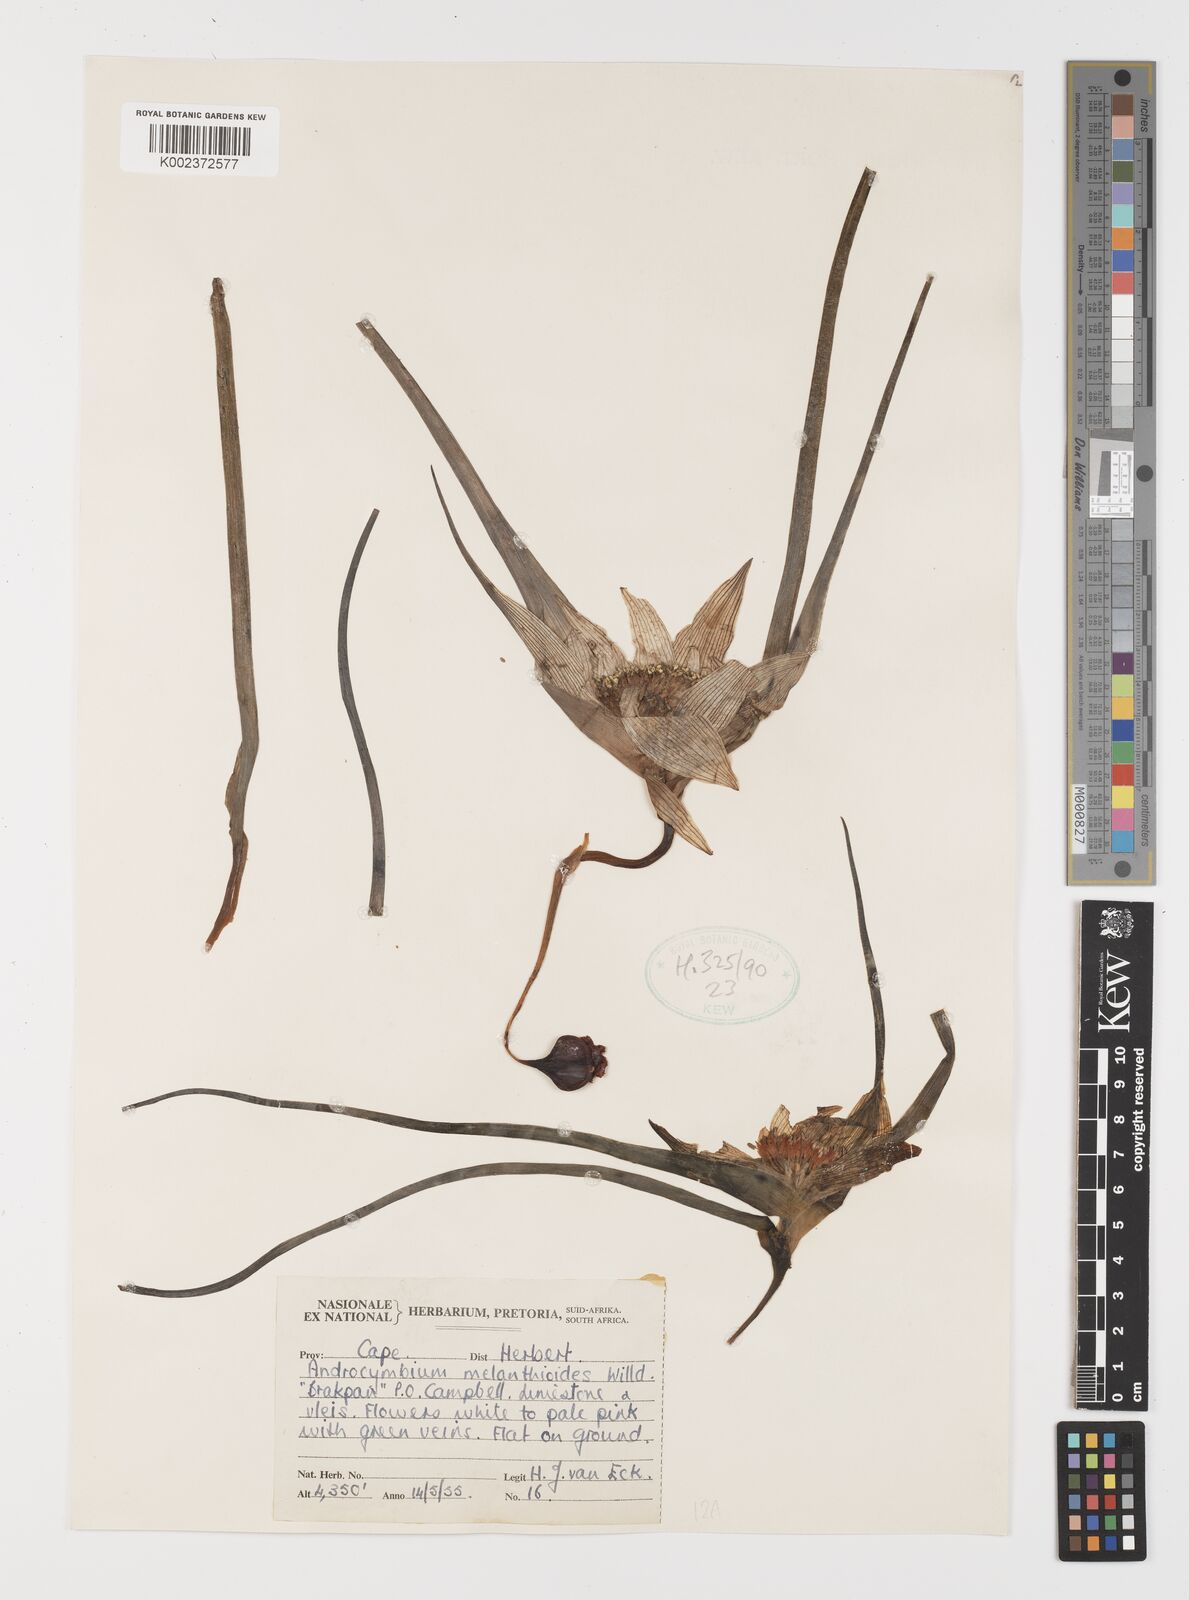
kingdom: Plantae
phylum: Tracheophyta
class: Liliopsida
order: Liliales
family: Colchicaceae
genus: Colchicum
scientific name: Colchicum melanthioides
